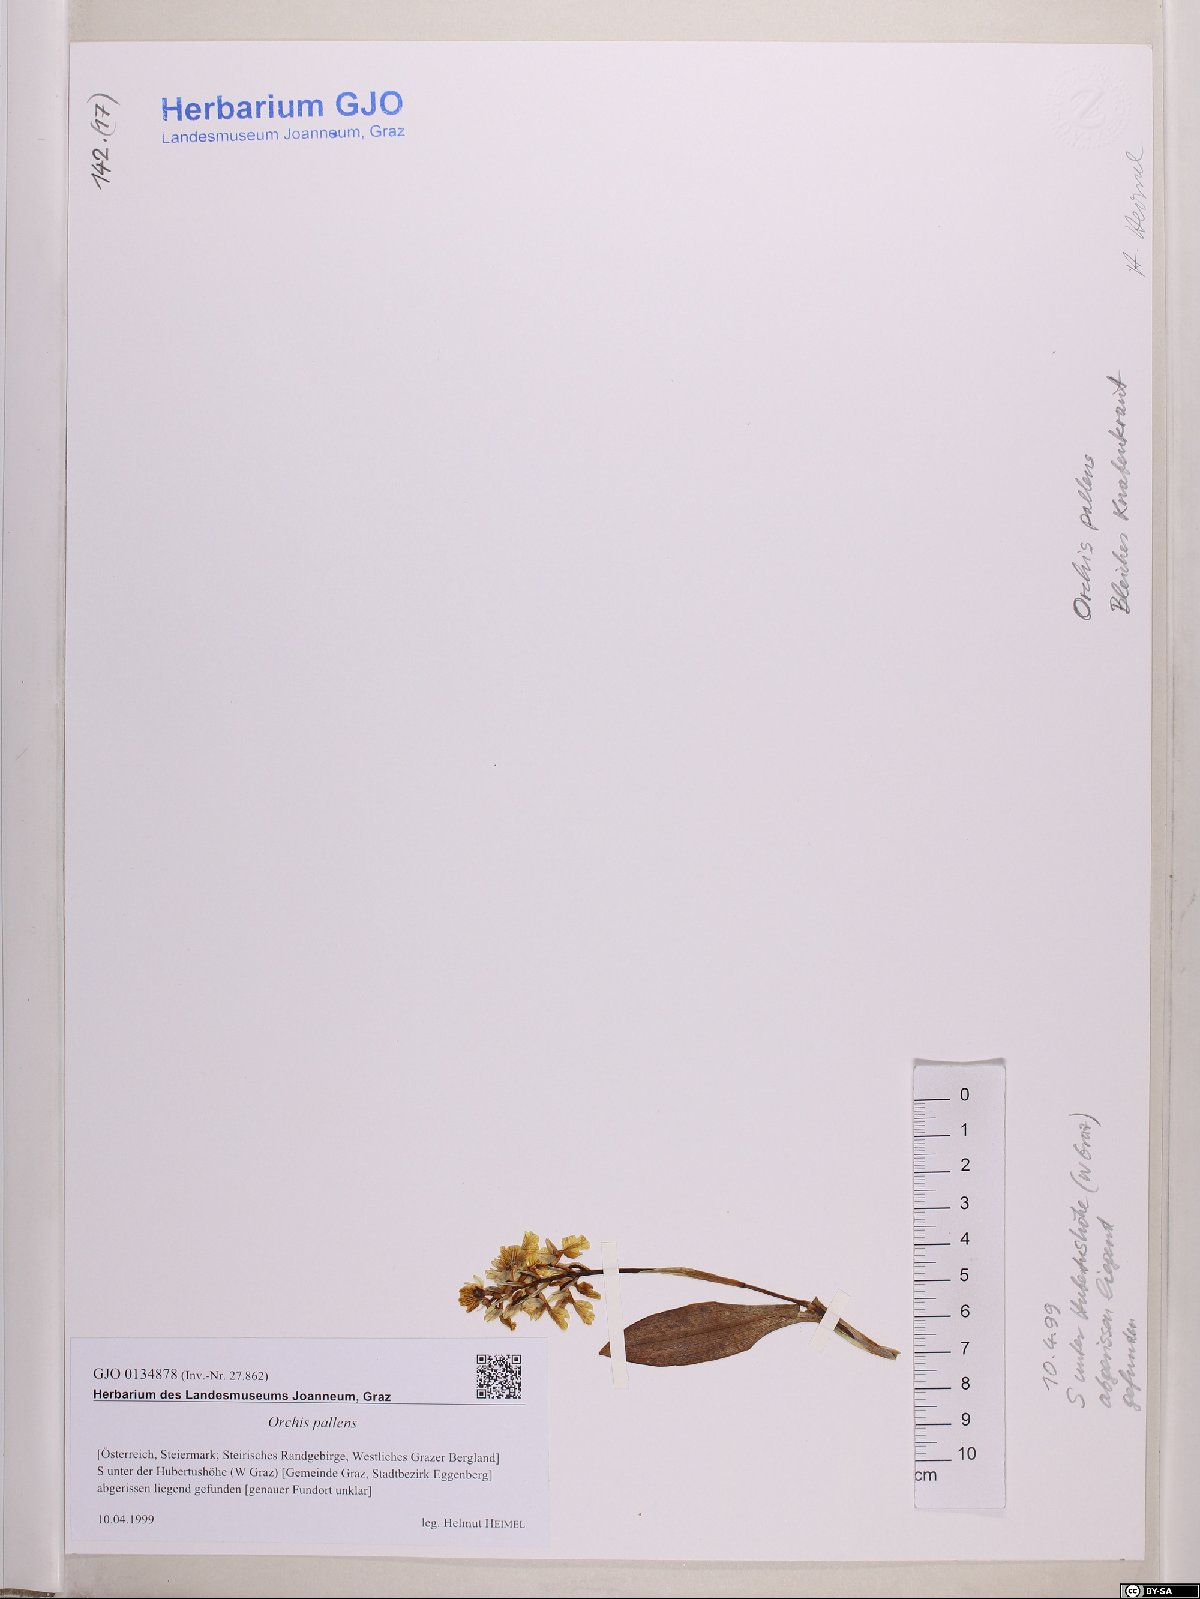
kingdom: Plantae
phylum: Tracheophyta
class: Liliopsida
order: Asparagales
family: Orchidaceae
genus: Orchis
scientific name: Orchis pallens
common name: Pale-flowered orchid
